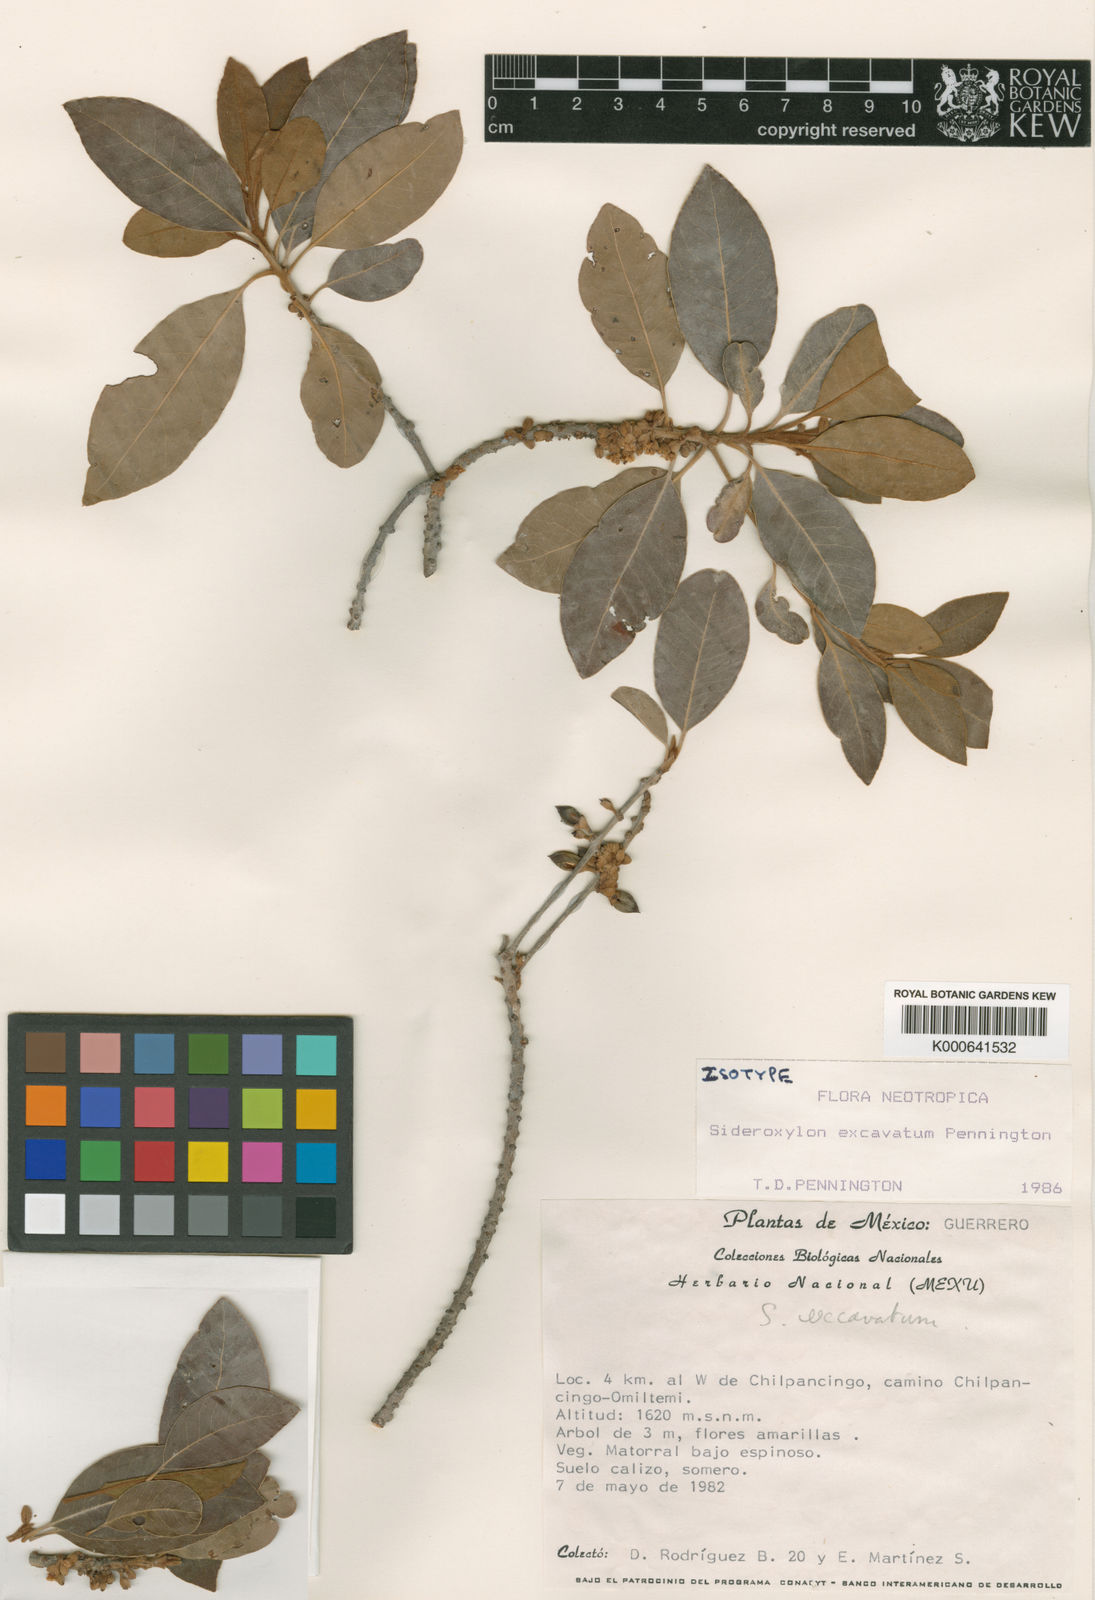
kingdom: Plantae
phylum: Tracheophyta
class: Magnoliopsida
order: Ericales
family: Sapotaceae
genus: Sideroxylon
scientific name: Sideroxylon excavatum
